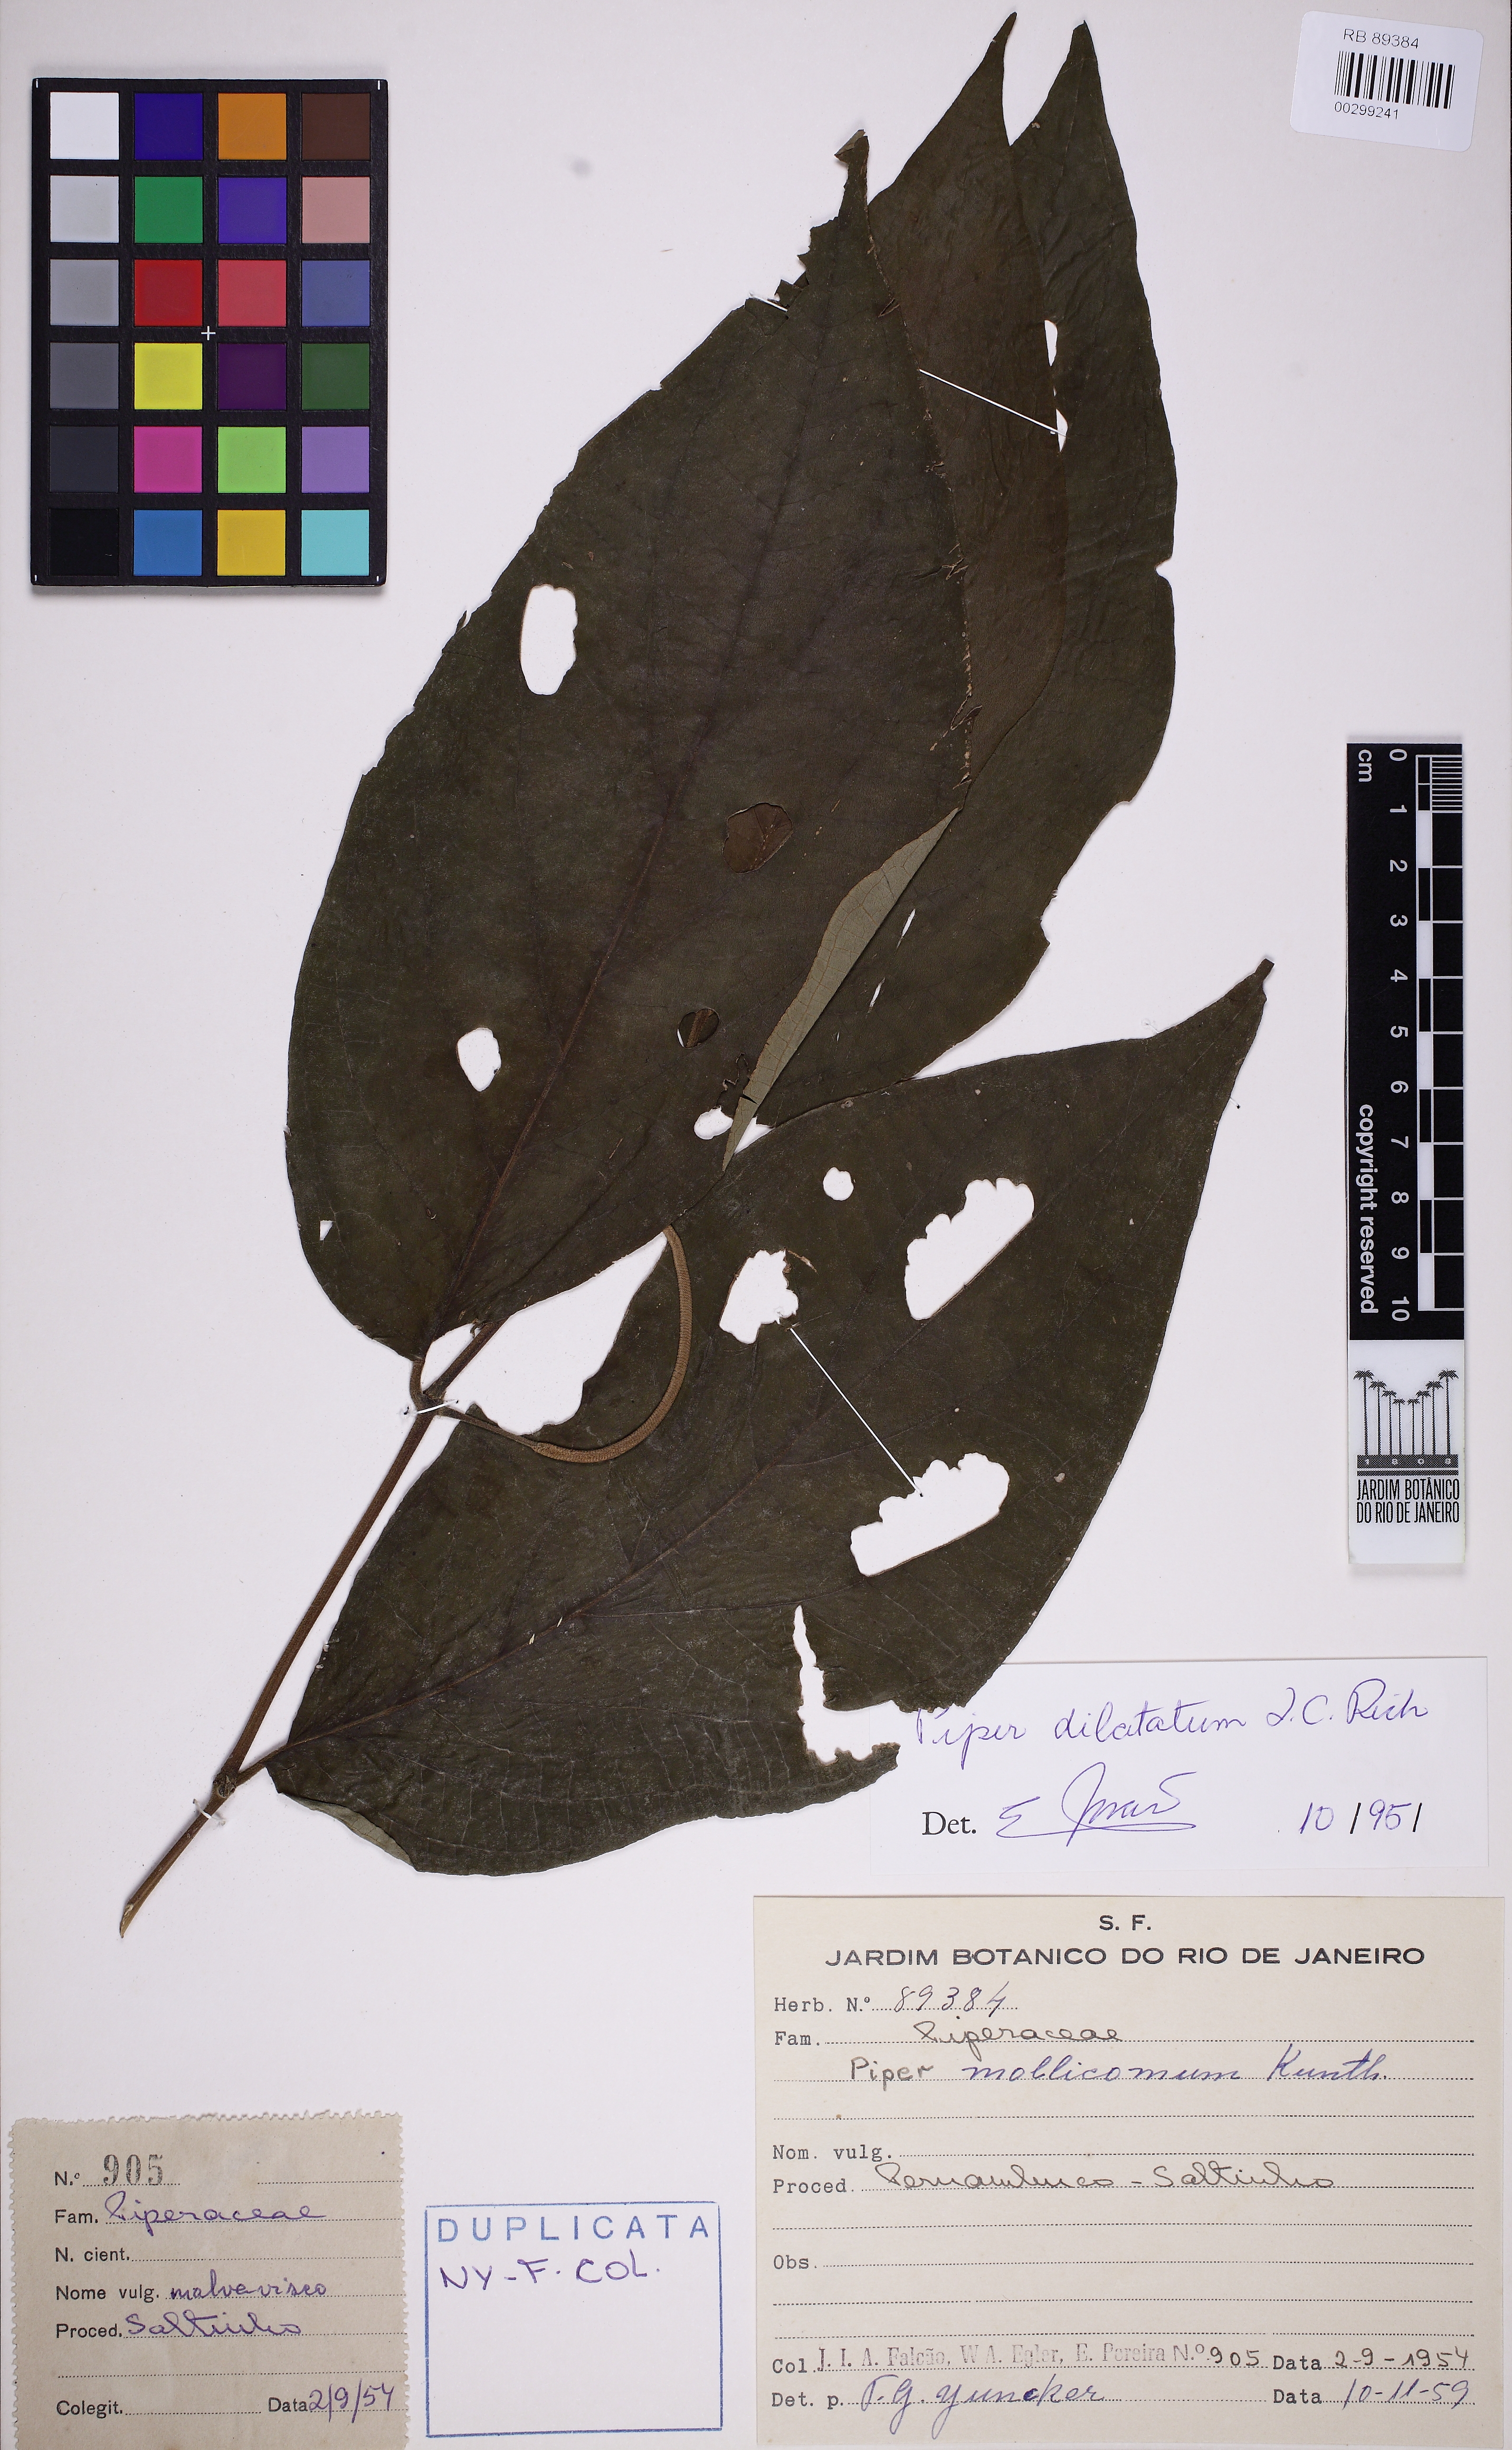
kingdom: Plantae
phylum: Tracheophyta
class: Magnoliopsida
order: Piperales
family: Piperaceae
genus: Piper
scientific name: Piper dilatatum
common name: Higuillo
